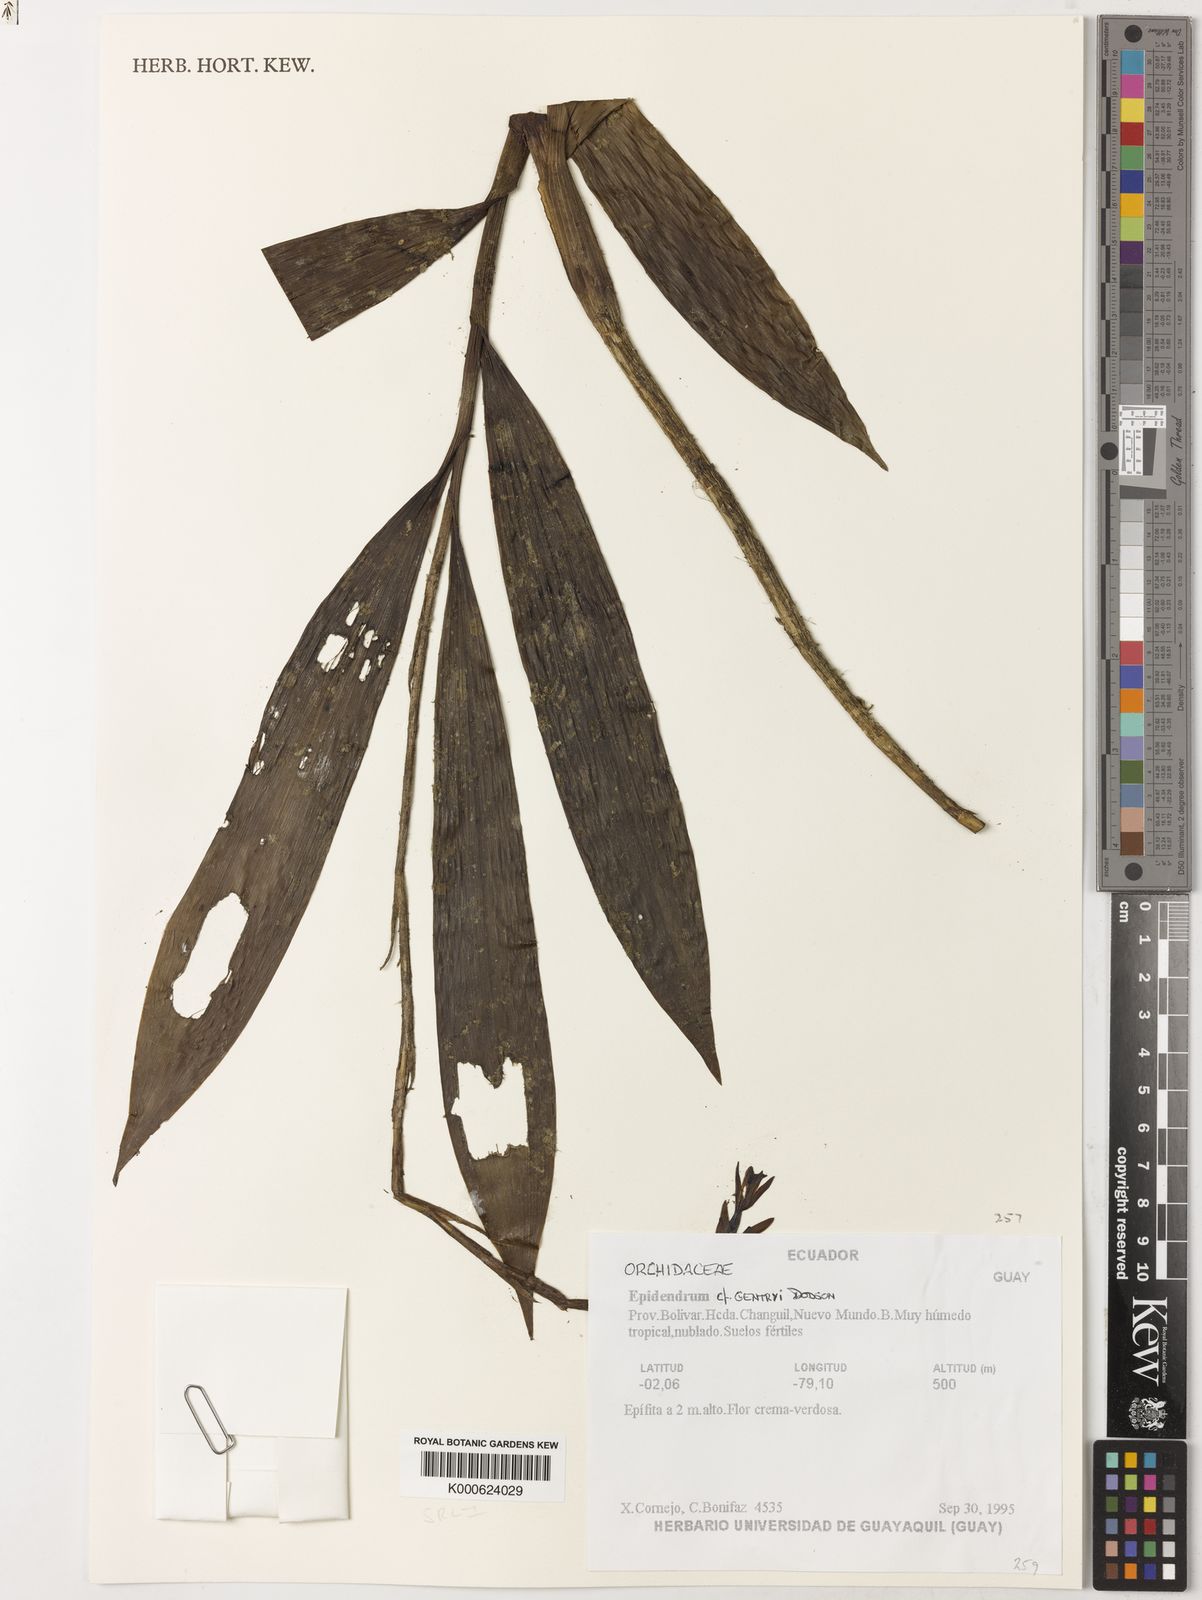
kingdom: Plantae
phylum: Tracheophyta
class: Liliopsida
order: Asparagales
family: Orchidaceae
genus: Epidendrum
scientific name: Epidendrum gentryi
